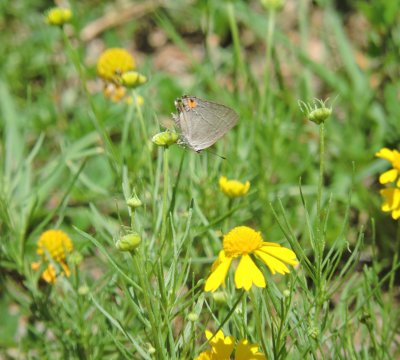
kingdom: Animalia
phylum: Arthropoda
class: Insecta
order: Lepidoptera
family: Lycaenidae
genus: Strymon
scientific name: Strymon melinus
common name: Gray Hairstreak
